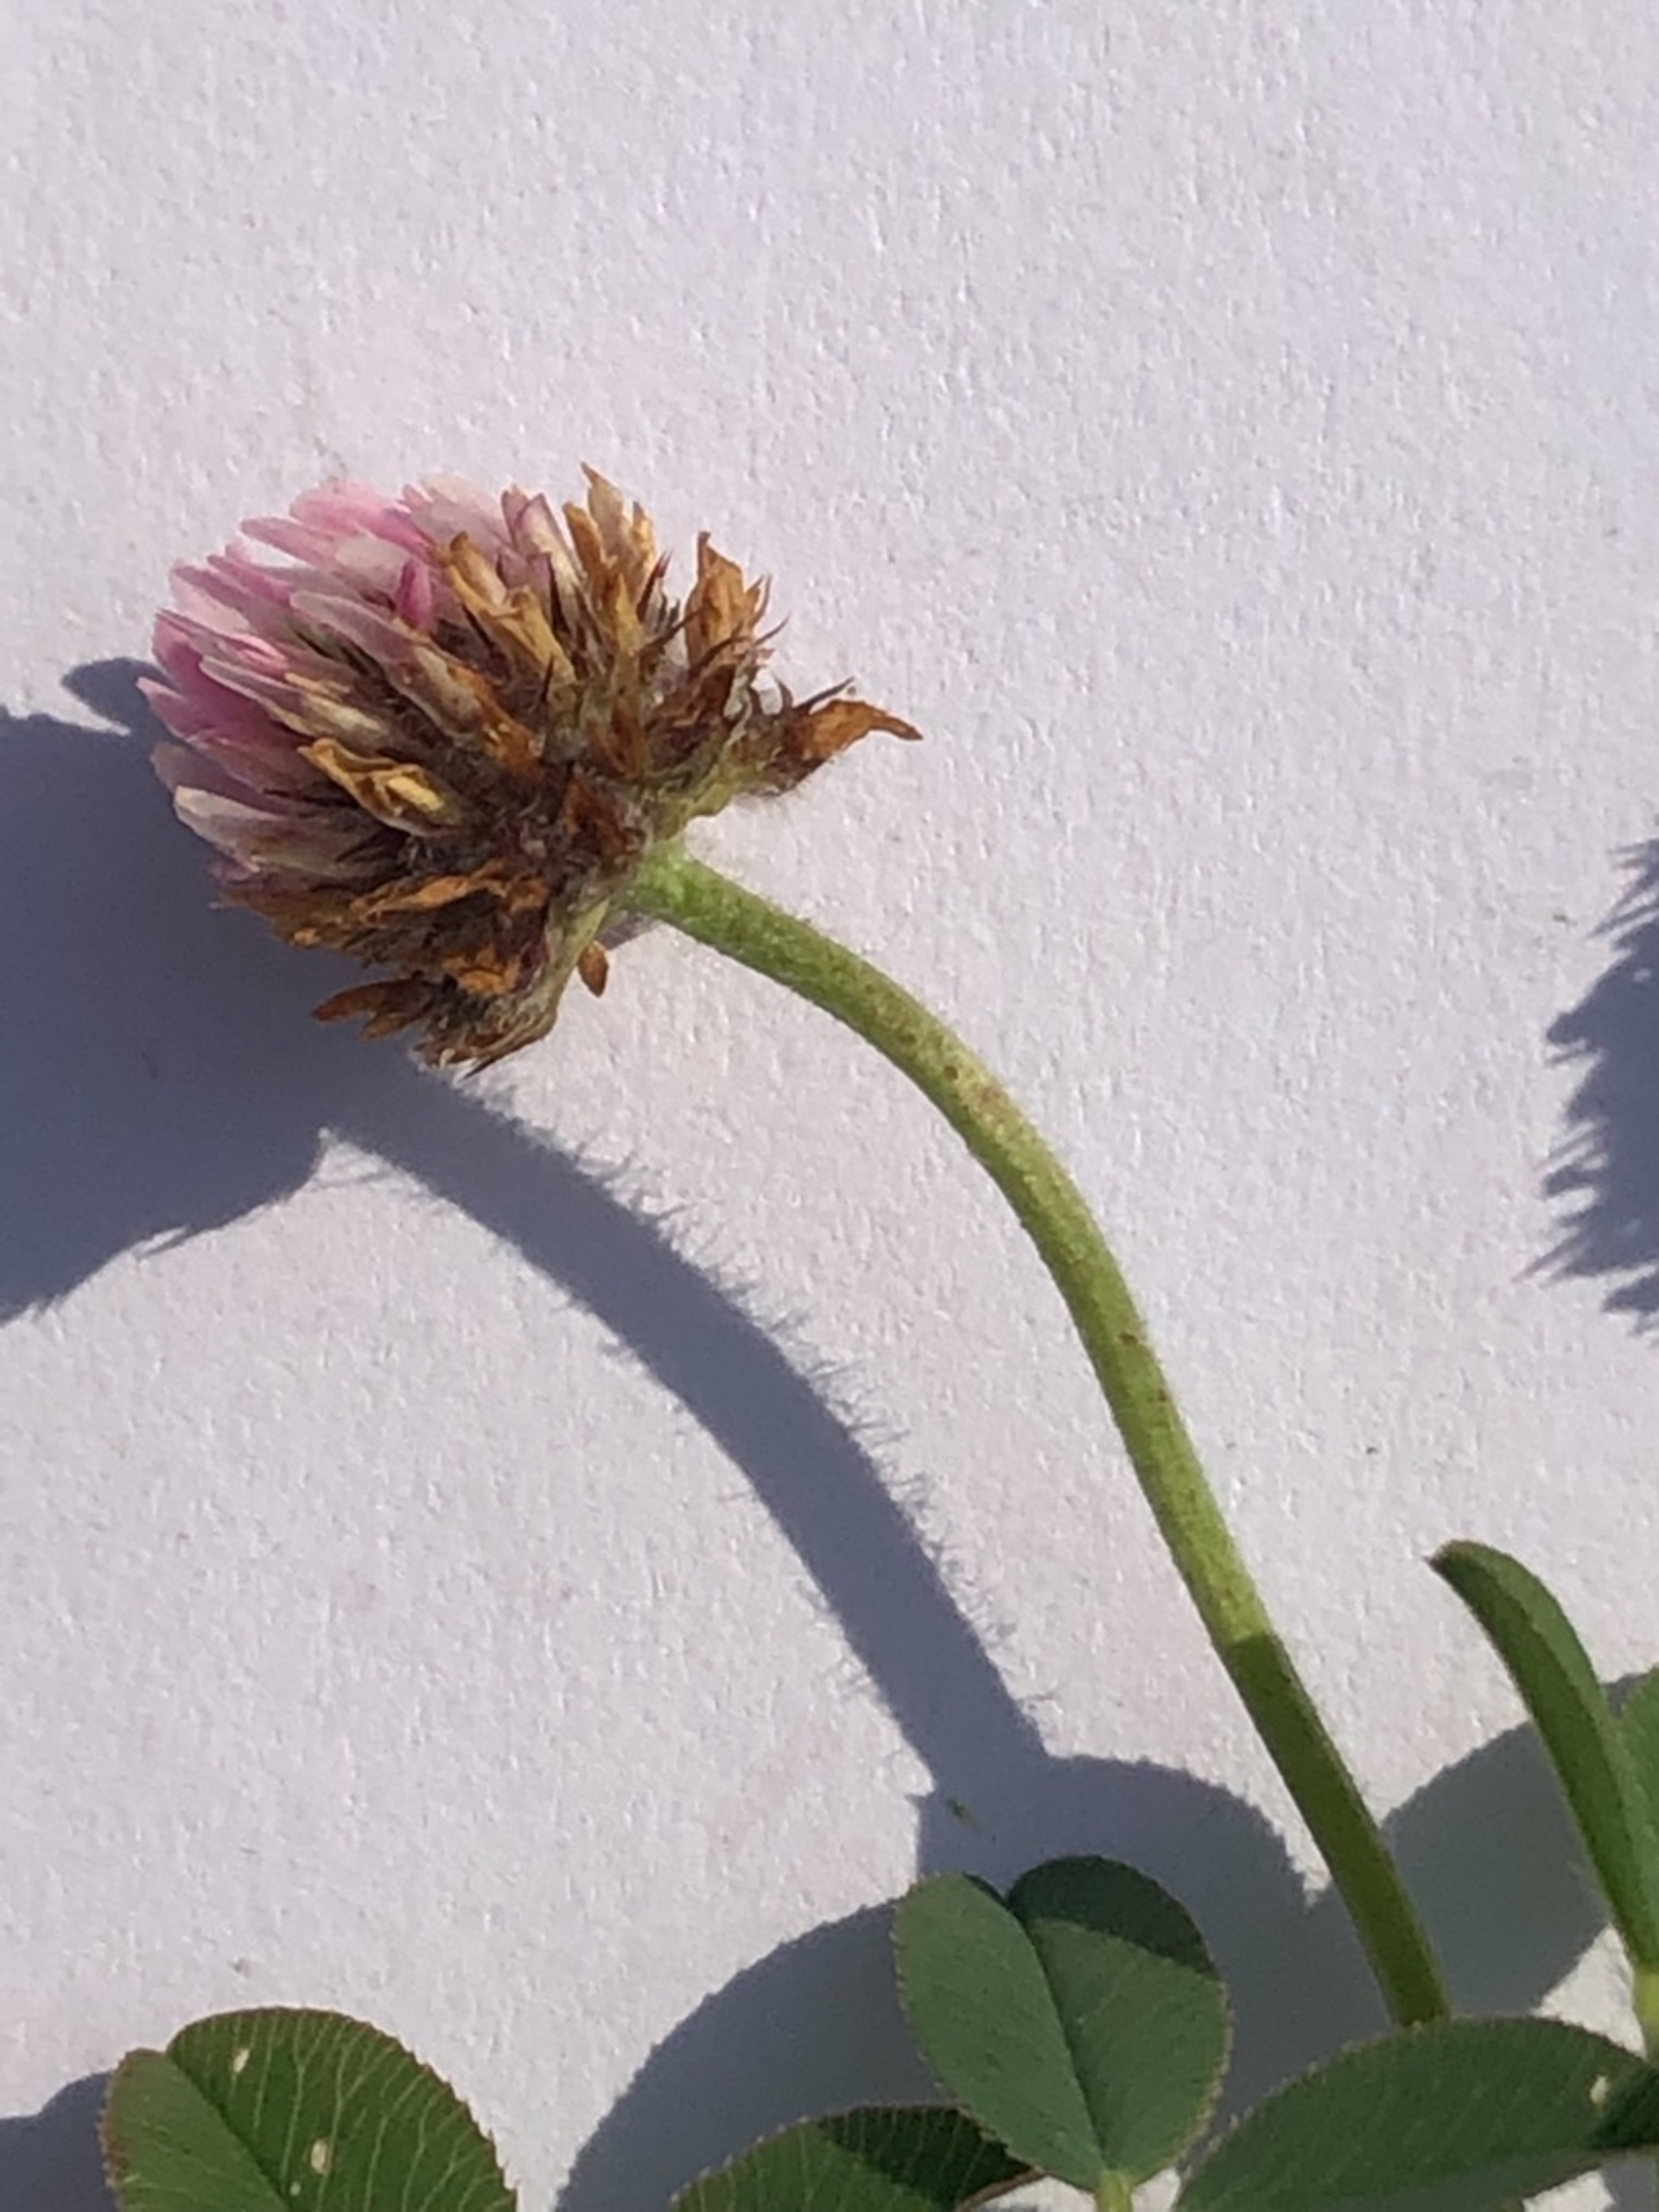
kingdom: Plantae
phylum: Tracheophyta
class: Magnoliopsida
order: Fabales
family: Fabaceae
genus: Trifolium
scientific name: Trifolium fragiferum
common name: Jordbær-kløver
